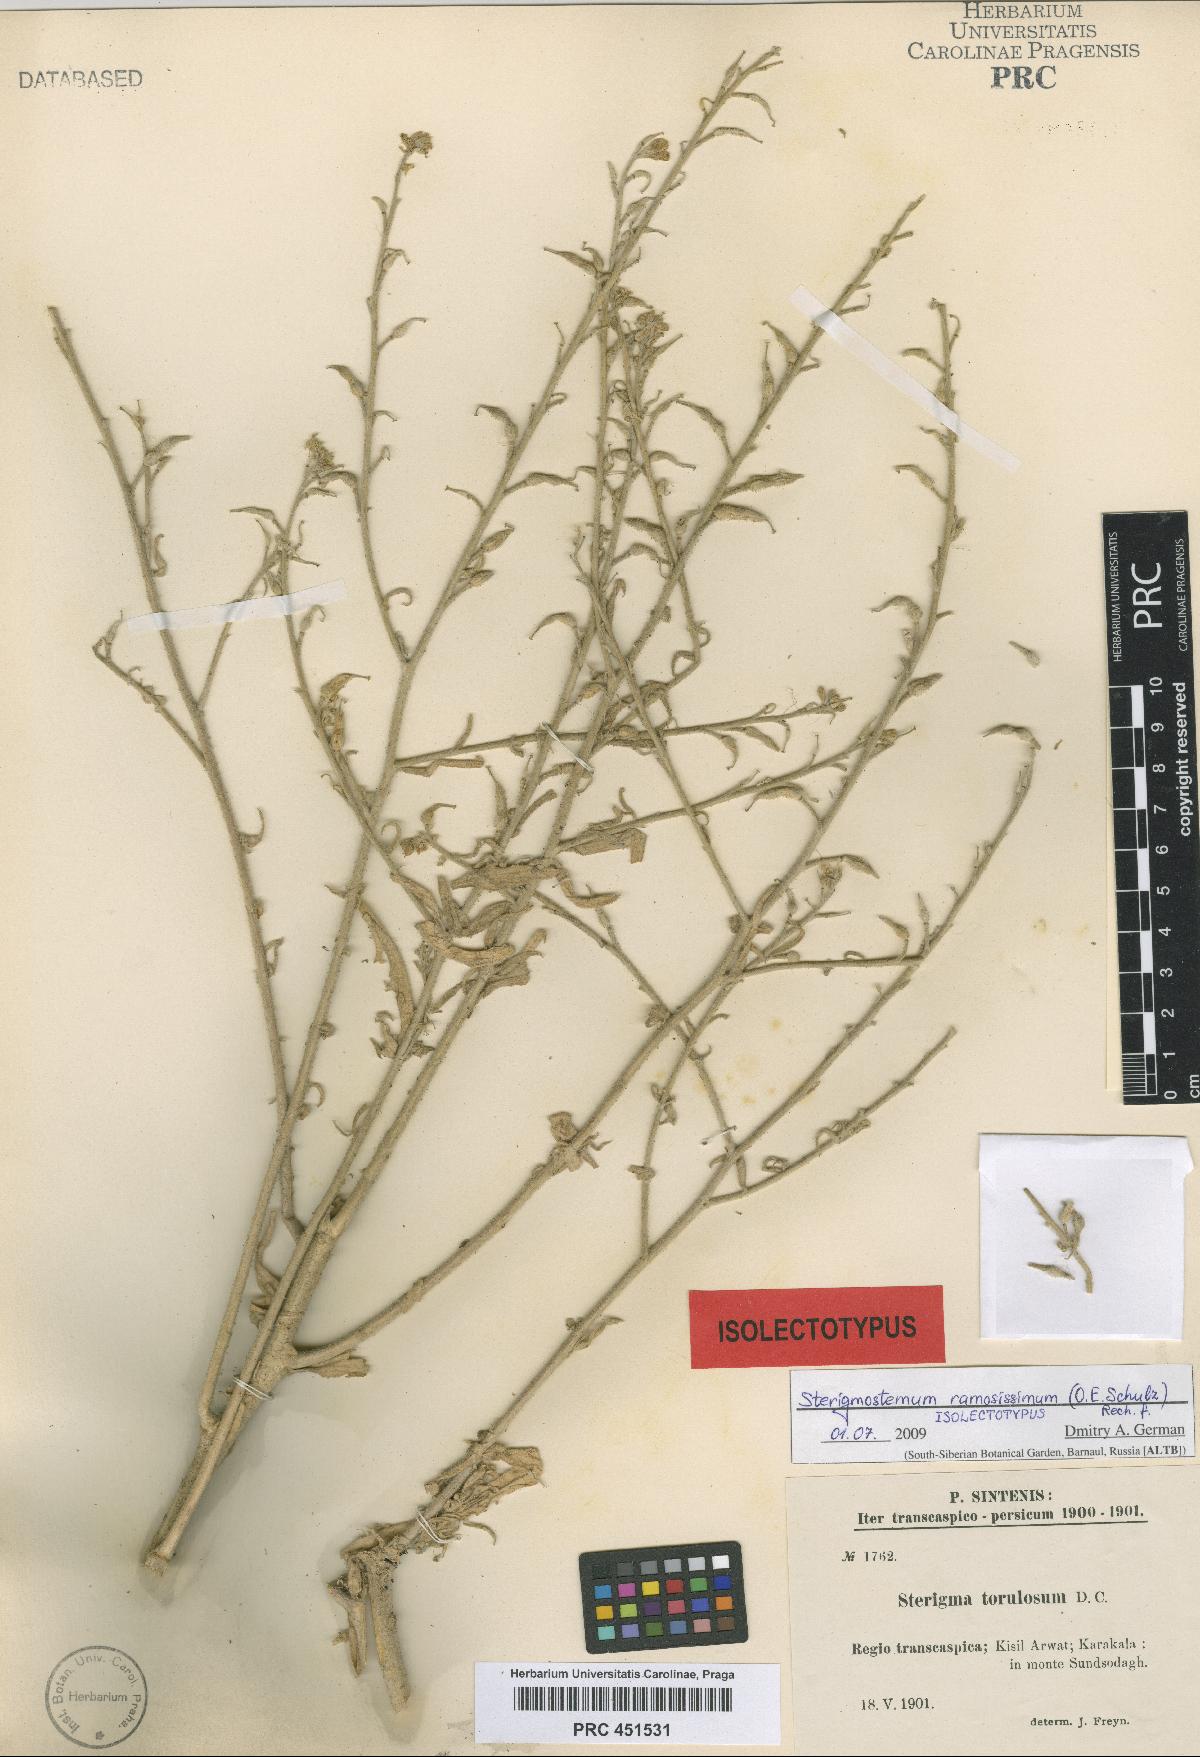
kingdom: Plantae
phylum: Tracheophyta
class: Magnoliopsida
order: Brassicales
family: Brassicaceae
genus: Sterigmostemum
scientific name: Sterigmostemum ramosissimum
